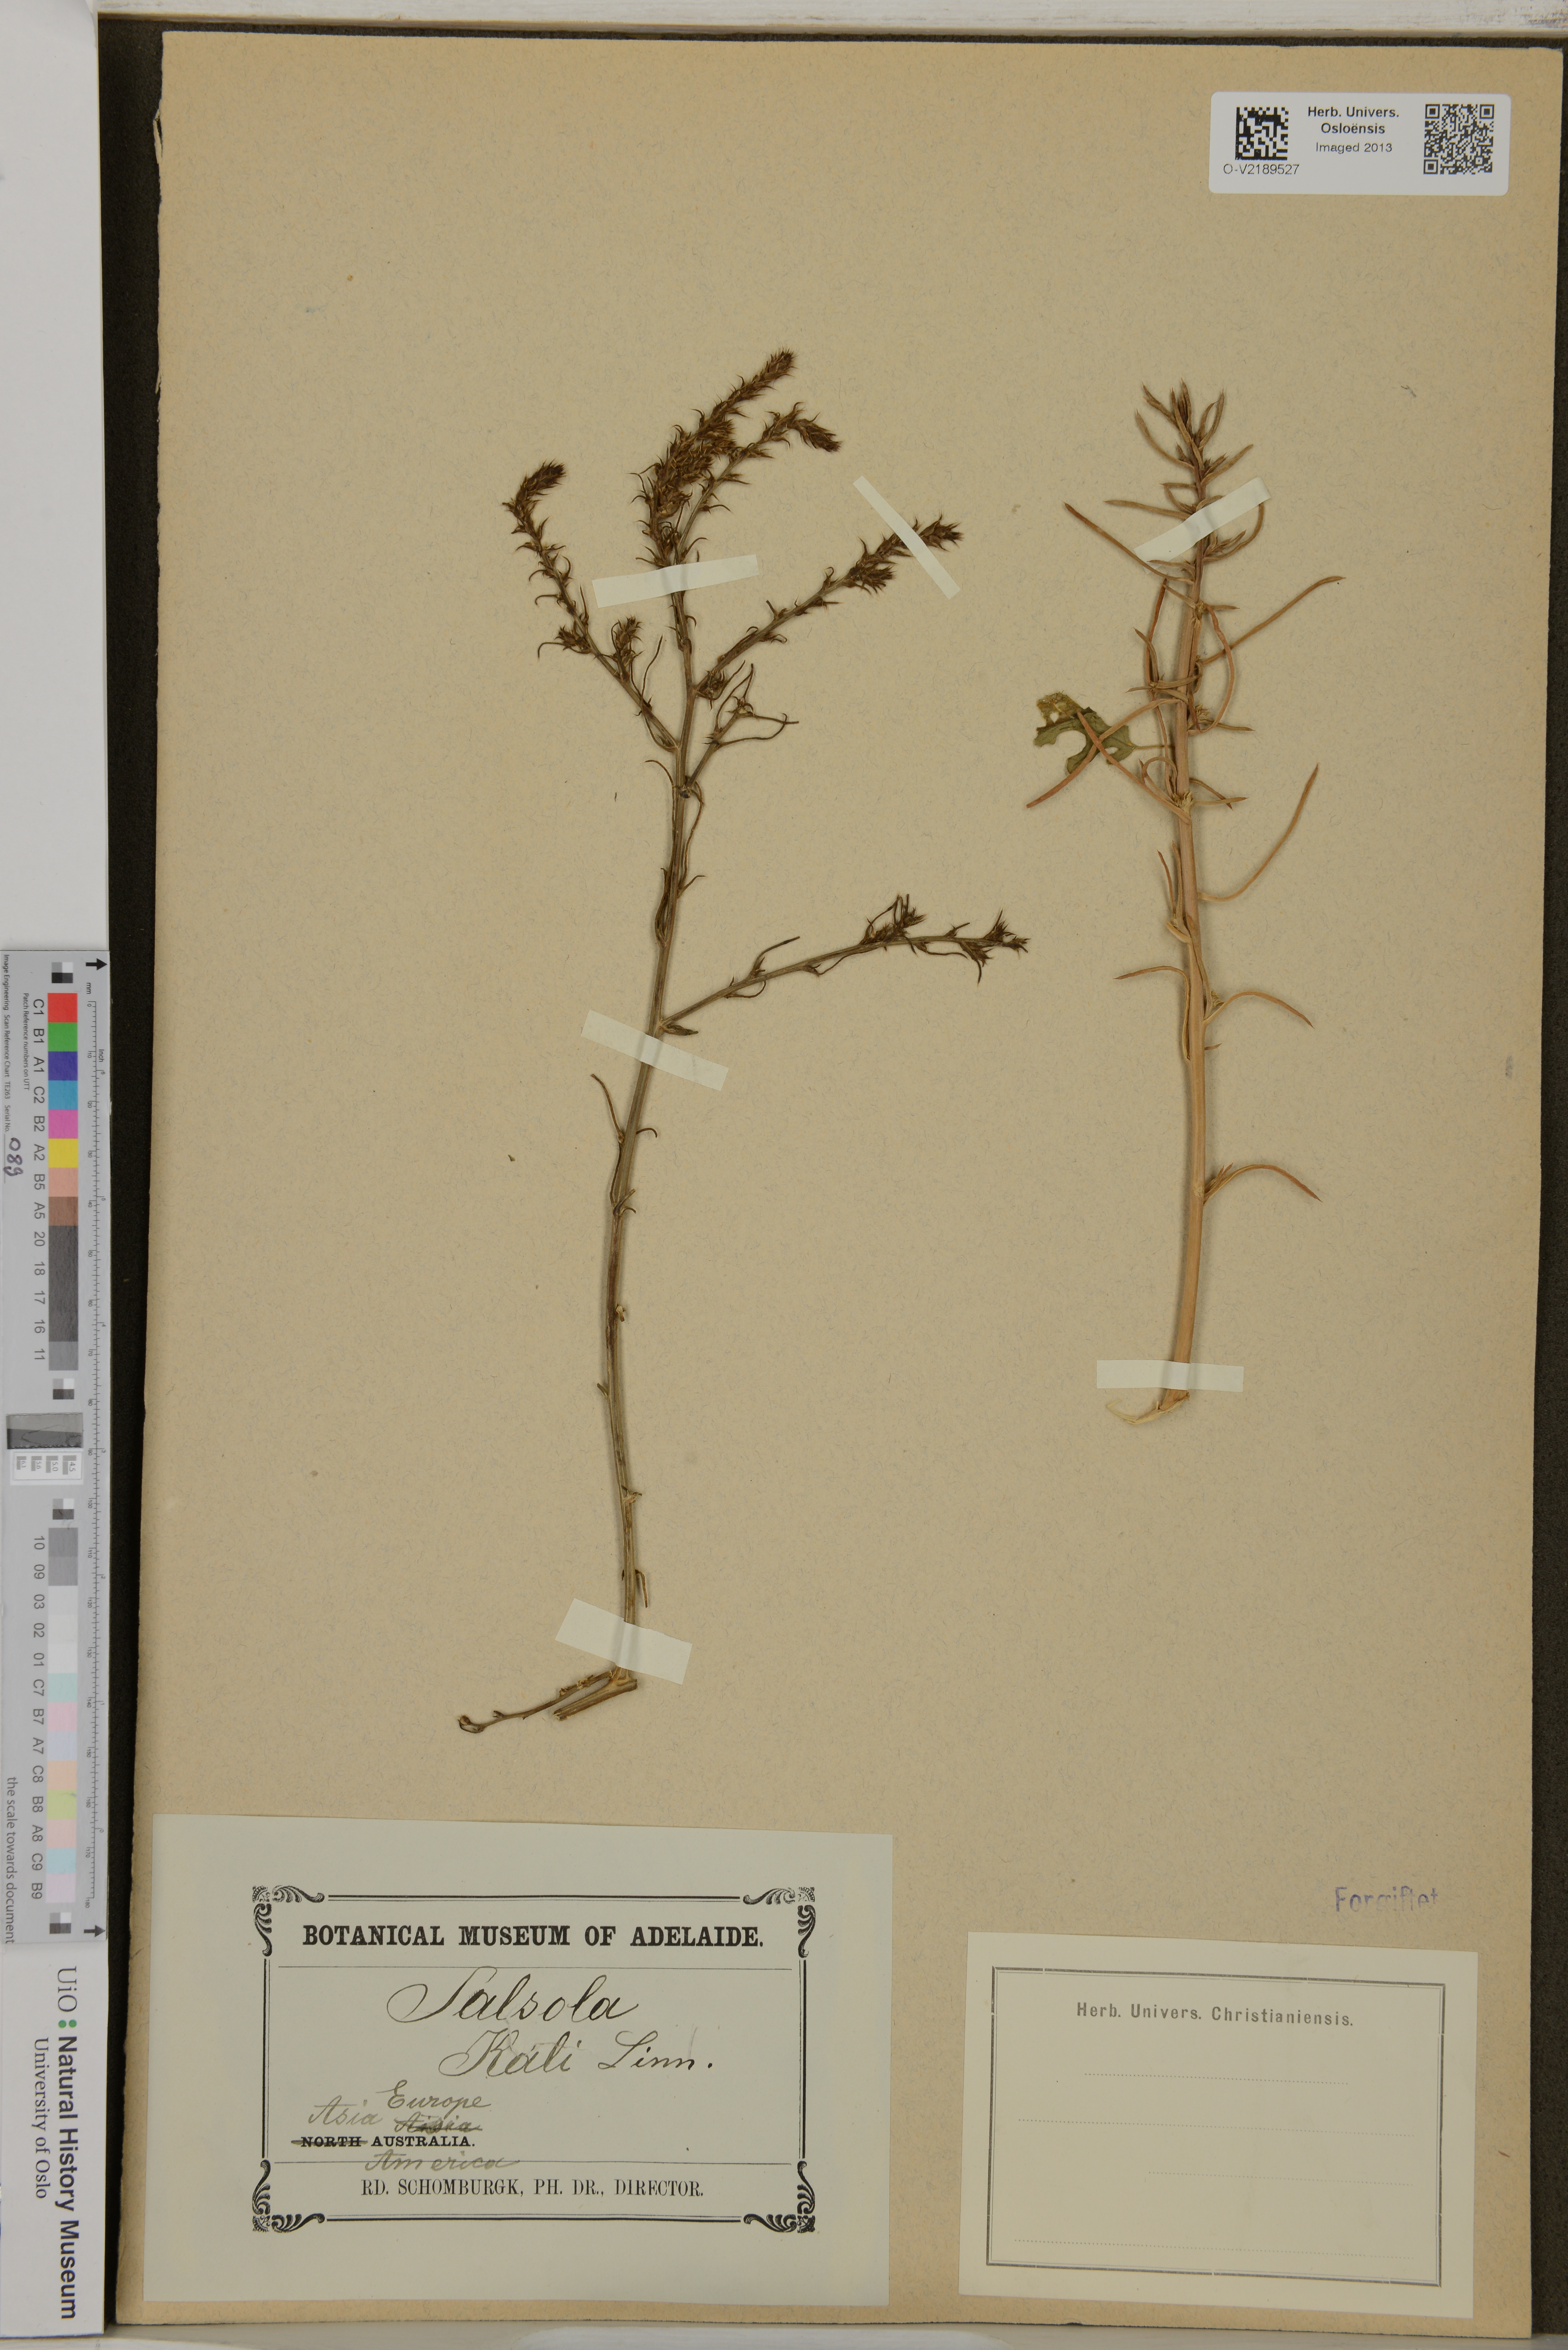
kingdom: Plantae
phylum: Tracheophyta
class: Magnoliopsida
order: Caryophyllales
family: Amaranthaceae
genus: Salsola
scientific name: Salsola kali
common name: Saltwort
